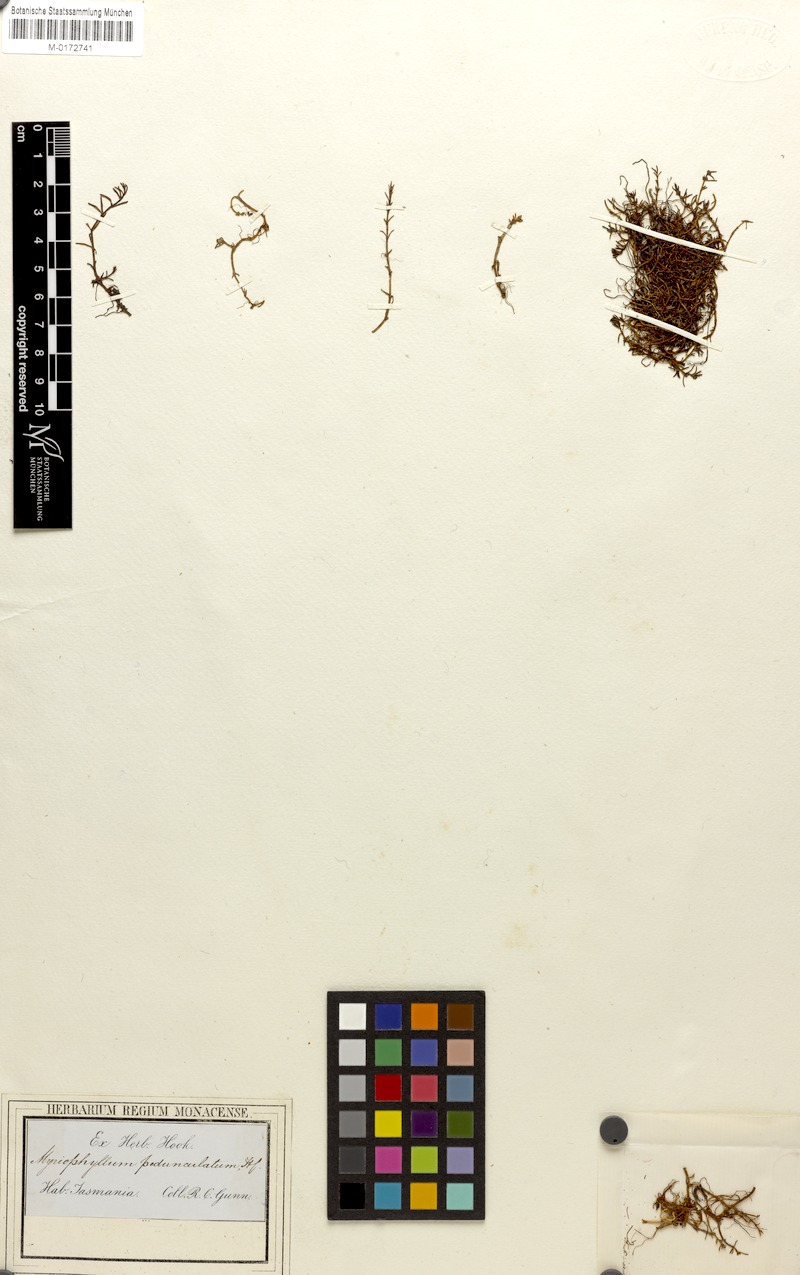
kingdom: Plantae
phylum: Tracheophyta
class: Magnoliopsida
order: Saxifragales
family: Haloragaceae
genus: Myriophyllum
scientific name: Myriophyllum pedunculatum
